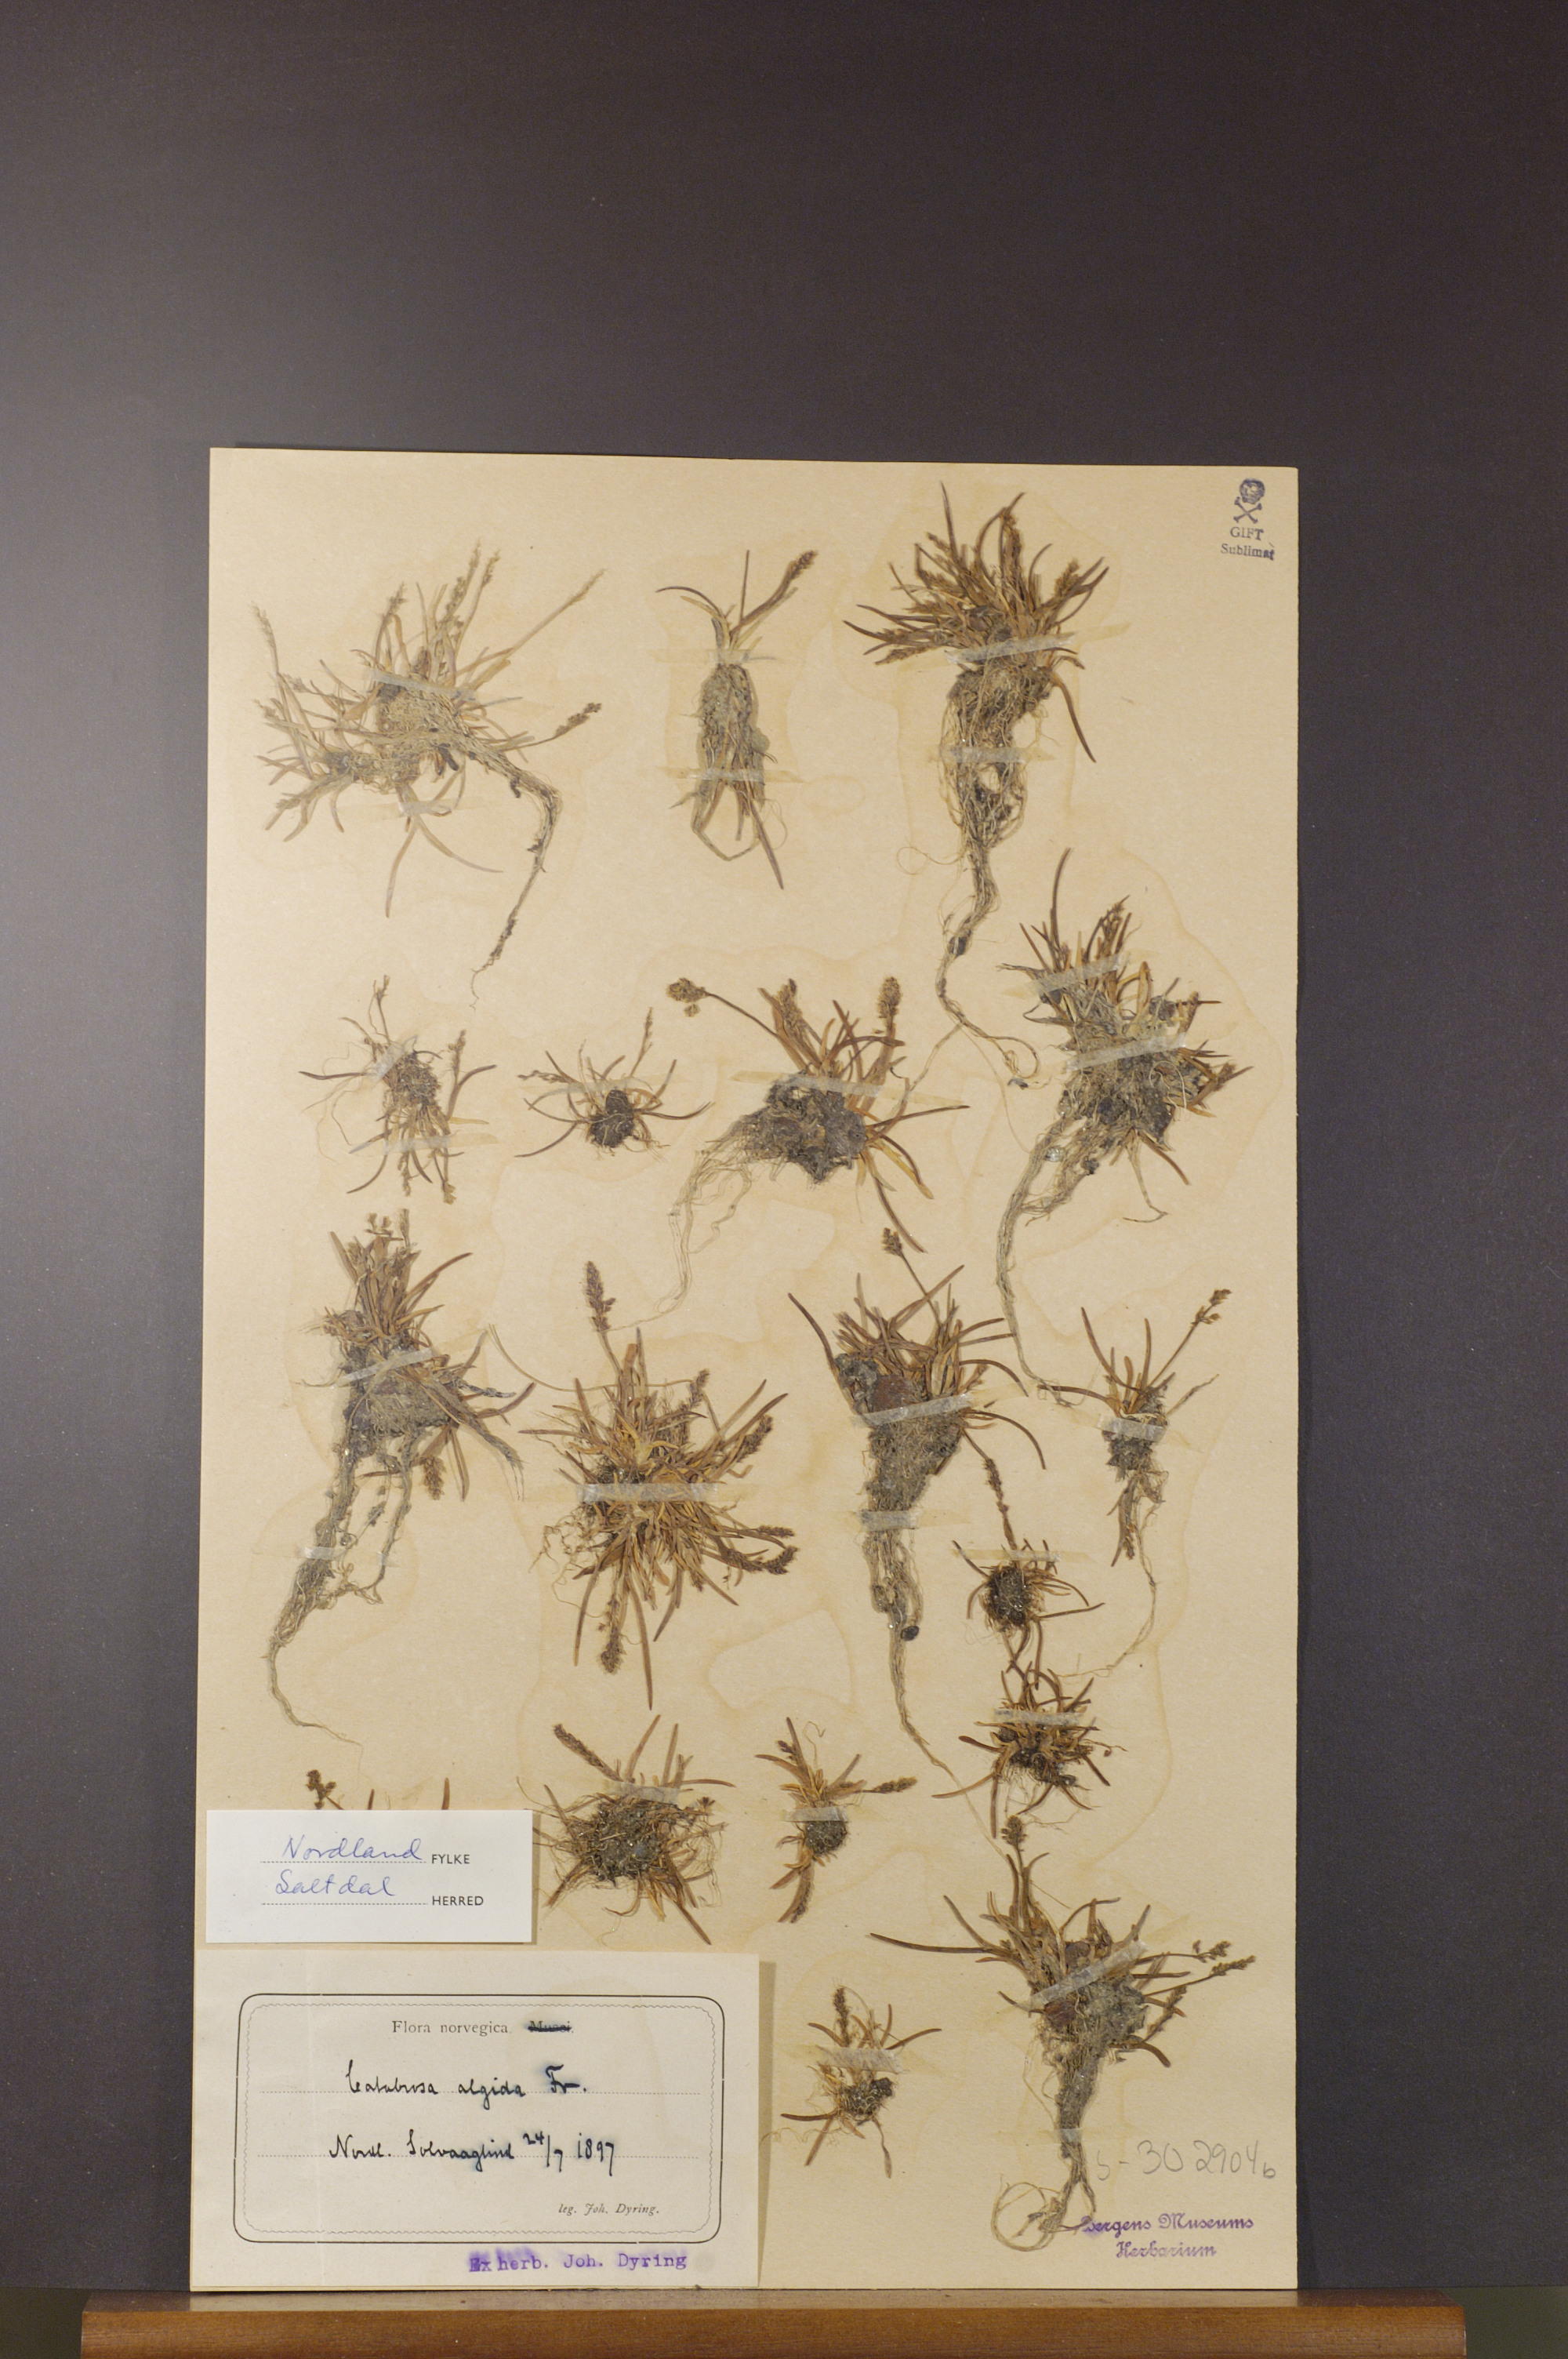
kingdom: Plantae
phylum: Tracheophyta
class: Liliopsida
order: Poales
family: Poaceae
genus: Phippsia
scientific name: Phippsia algida
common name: Ice grass
